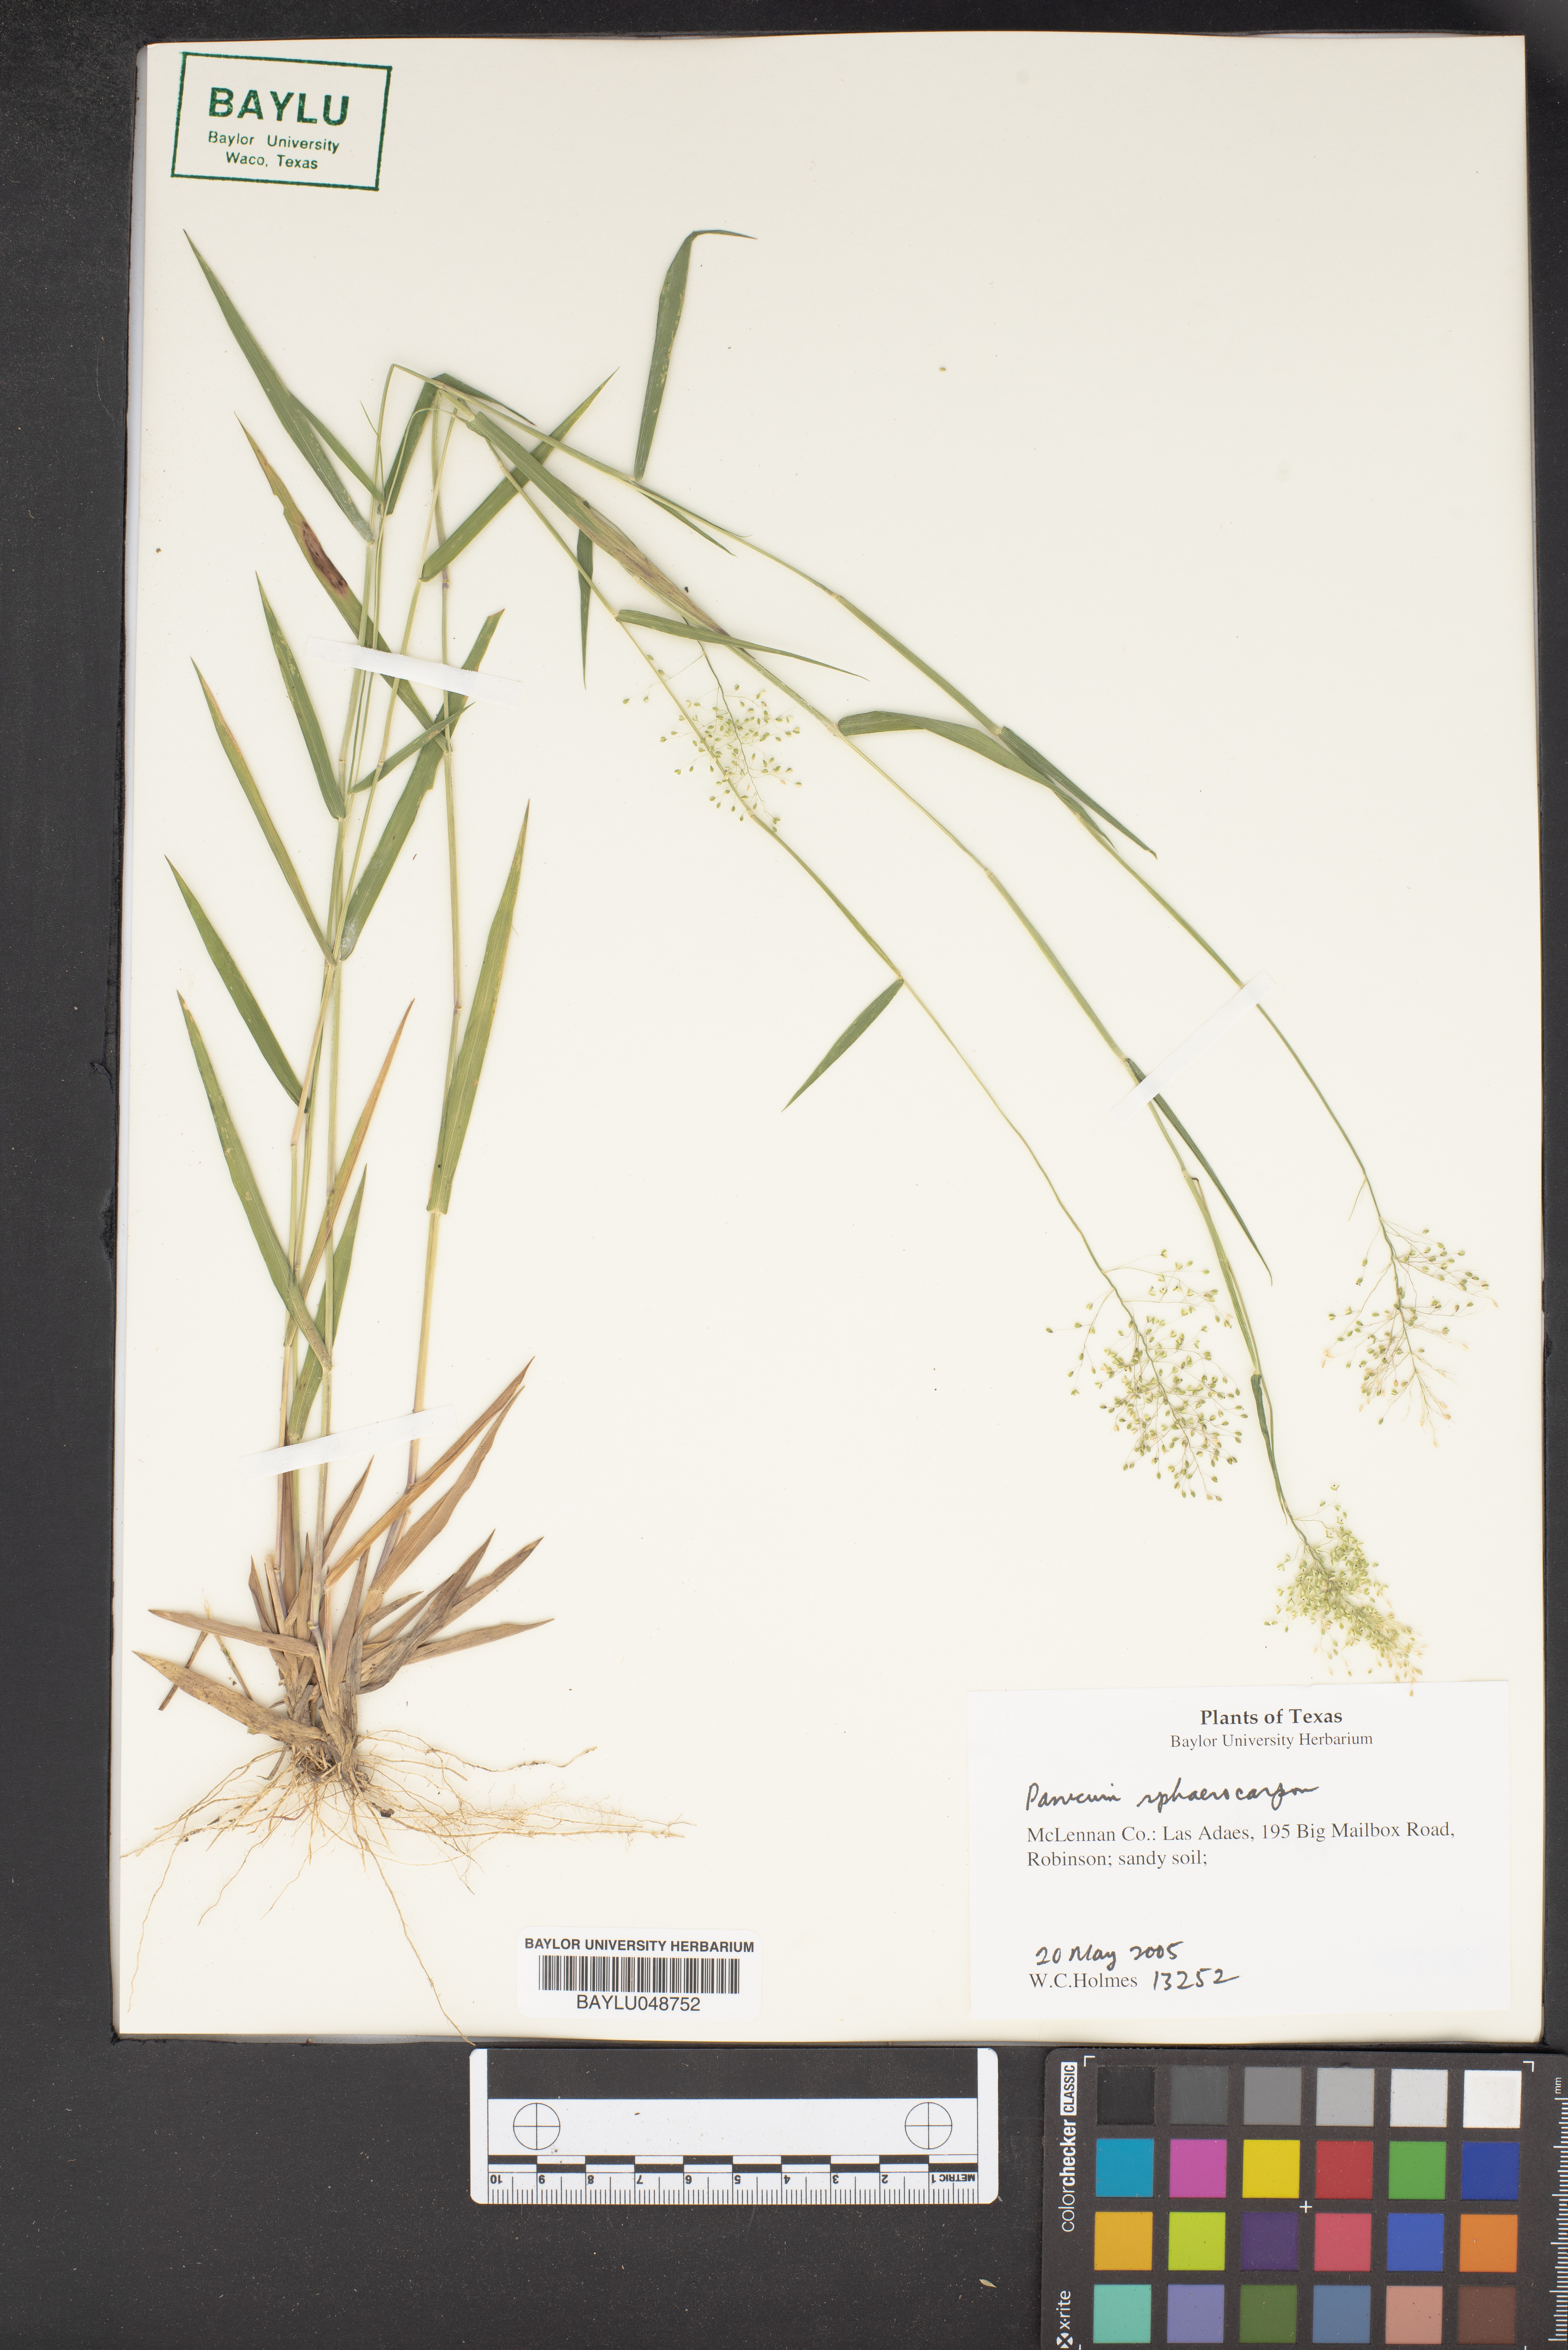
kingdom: Plantae
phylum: Tracheophyta
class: Liliopsida
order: Poales
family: Poaceae
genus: Dichanthelium
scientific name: Dichanthelium sphaerocarpon
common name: Round-fruited panicgrass
